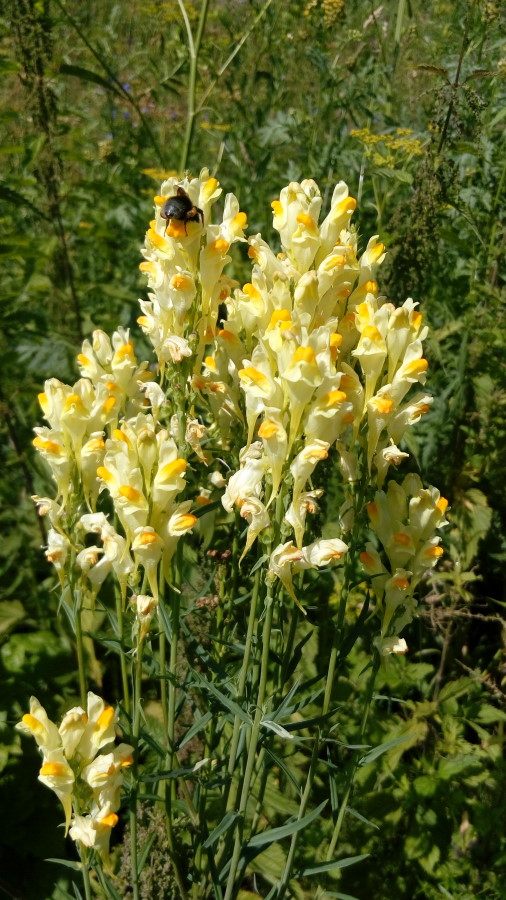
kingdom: Plantae
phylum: Tracheophyta
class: Magnoliopsida
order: Lamiales
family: Plantaginaceae
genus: Linaria
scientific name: Linaria vulgaris
